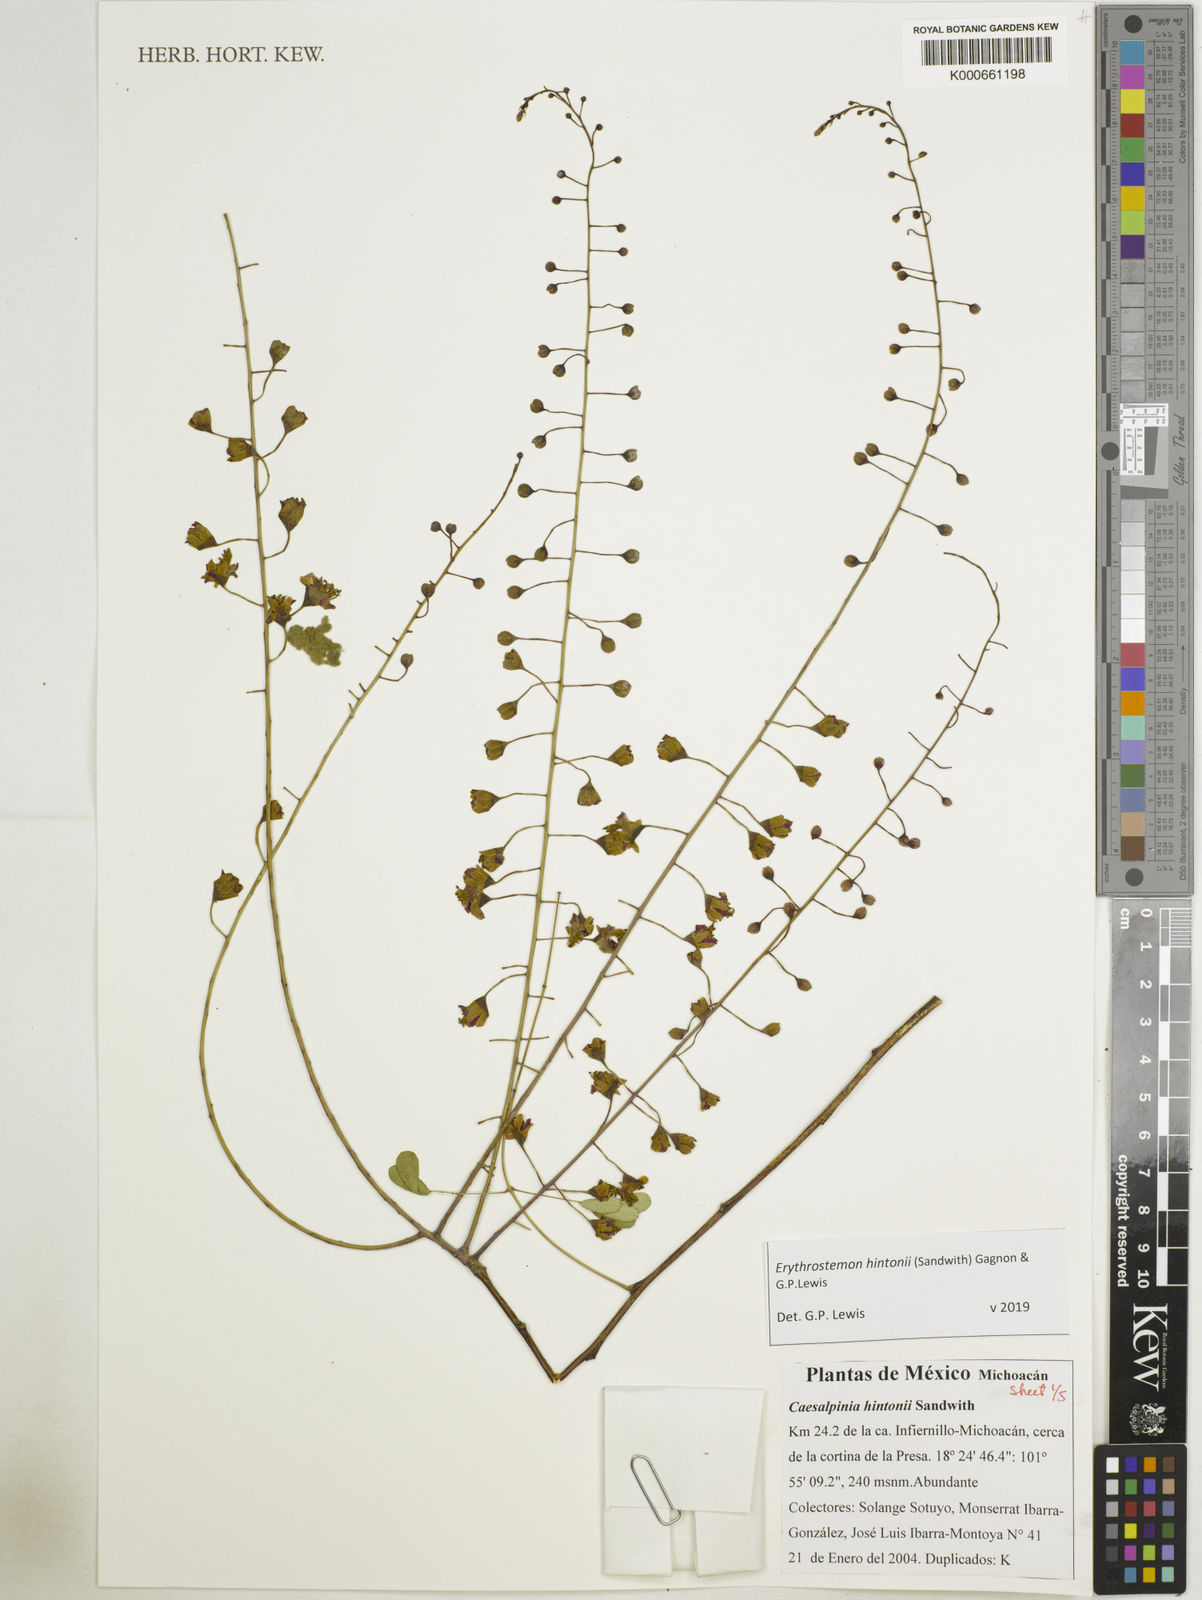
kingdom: Plantae
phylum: Tracheophyta
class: Magnoliopsida
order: Fabales
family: Fabaceae
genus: Erythrostemon
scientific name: Erythrostemon hintonii
